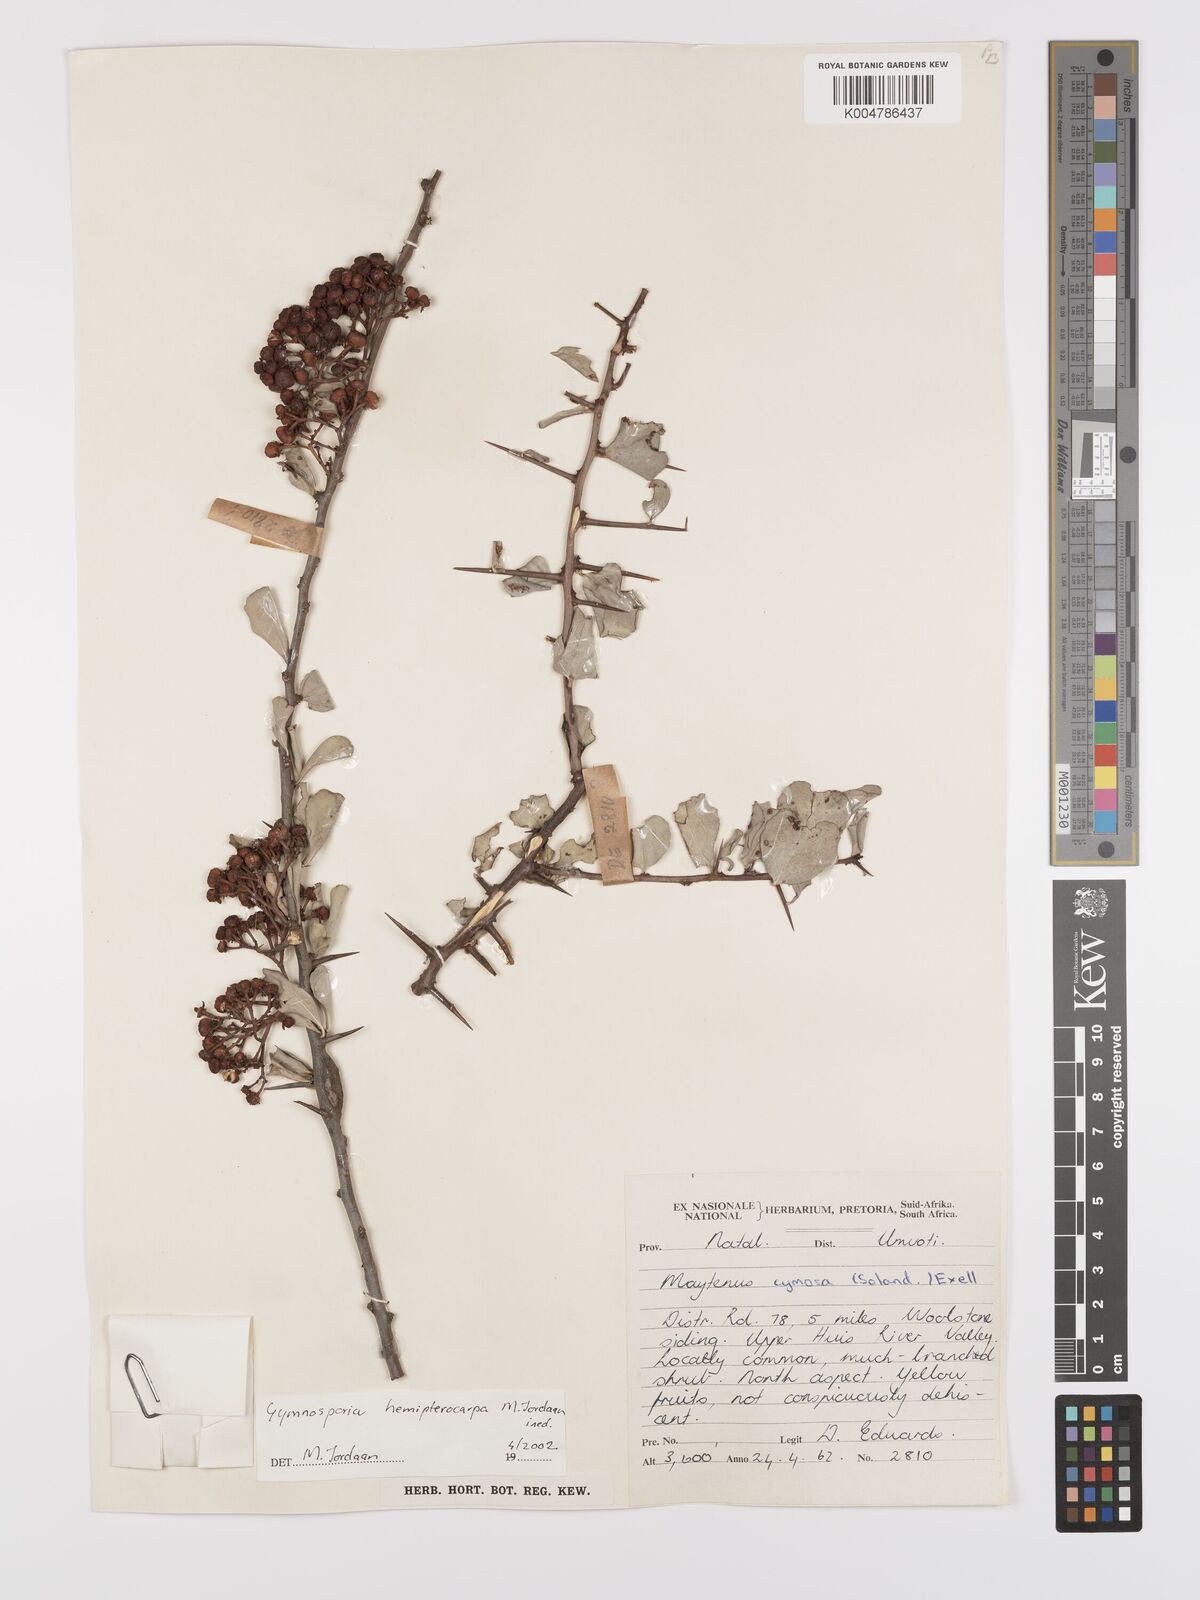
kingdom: Plantae
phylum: Tracheophyta
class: Magnoliopsida
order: Celastrales
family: Celastraceae
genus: Gymnosporia
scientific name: Gymnosporia hemipterocarpa
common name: Valley spikethorn
